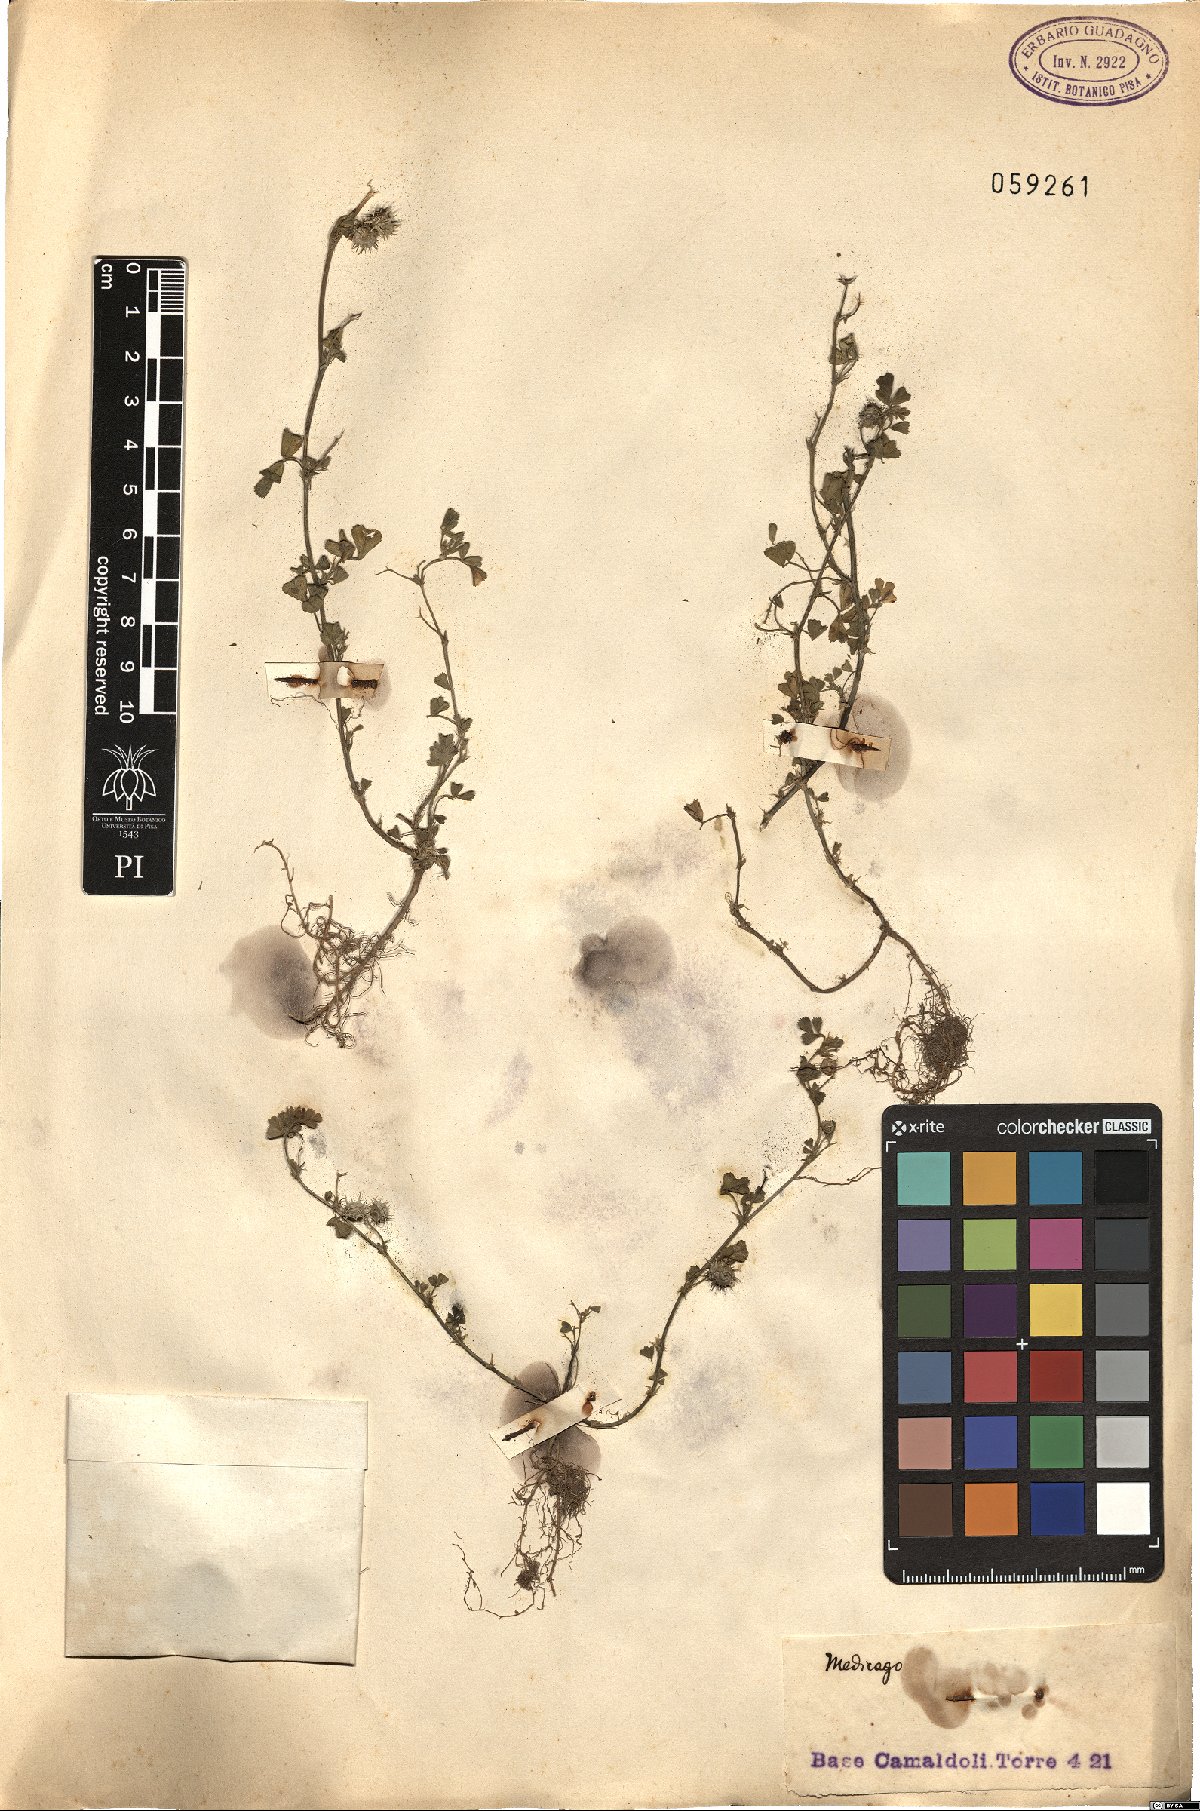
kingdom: Plantae
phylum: Tracheophyta
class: Magnoliopsida
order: Fabales
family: Fabaceae
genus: Medicago
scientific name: Medicago
